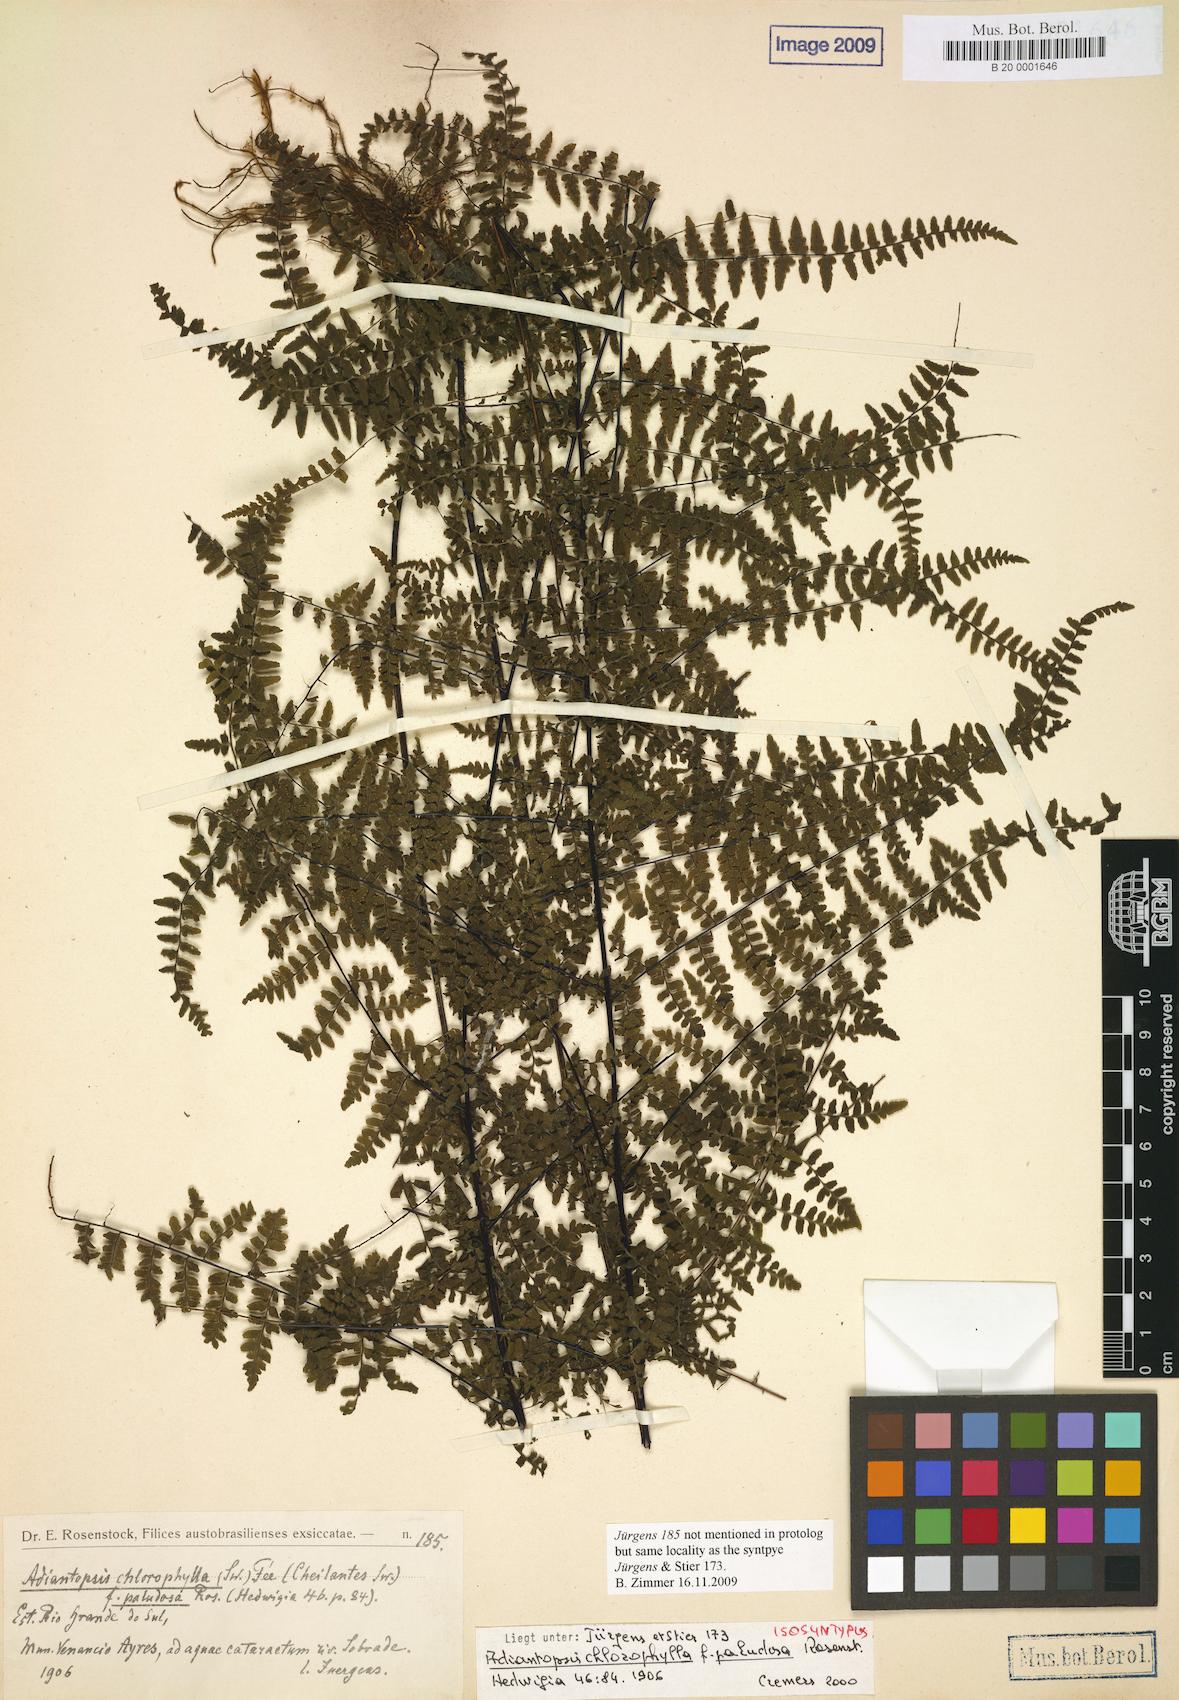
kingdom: Plantae
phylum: Tracheophyta
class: Polypodiopsida
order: Polypodiales
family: Pteridaceae
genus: Adiantopsis
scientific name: Adiantopsis occulta
